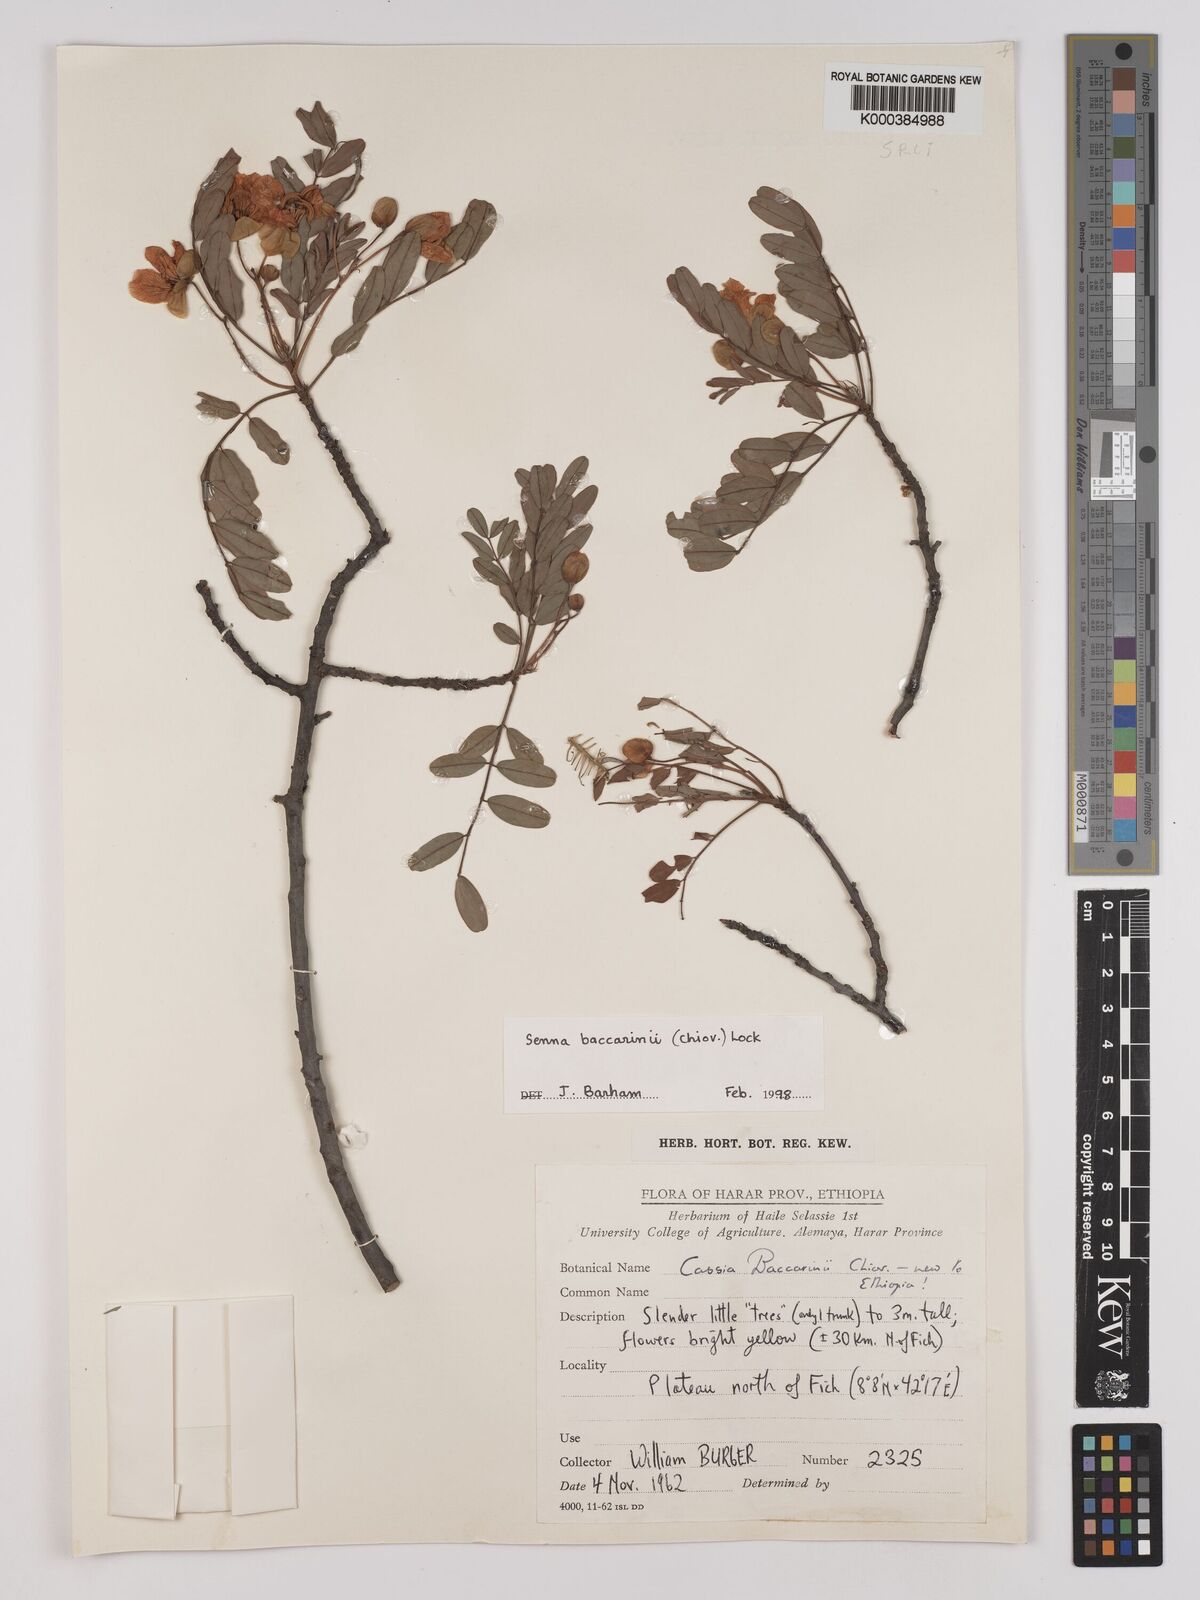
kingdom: Plantae
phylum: Tracheophyta
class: Magnoliopsida
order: Fabales
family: Fabaceae
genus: Senna
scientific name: Senna baccarinii
